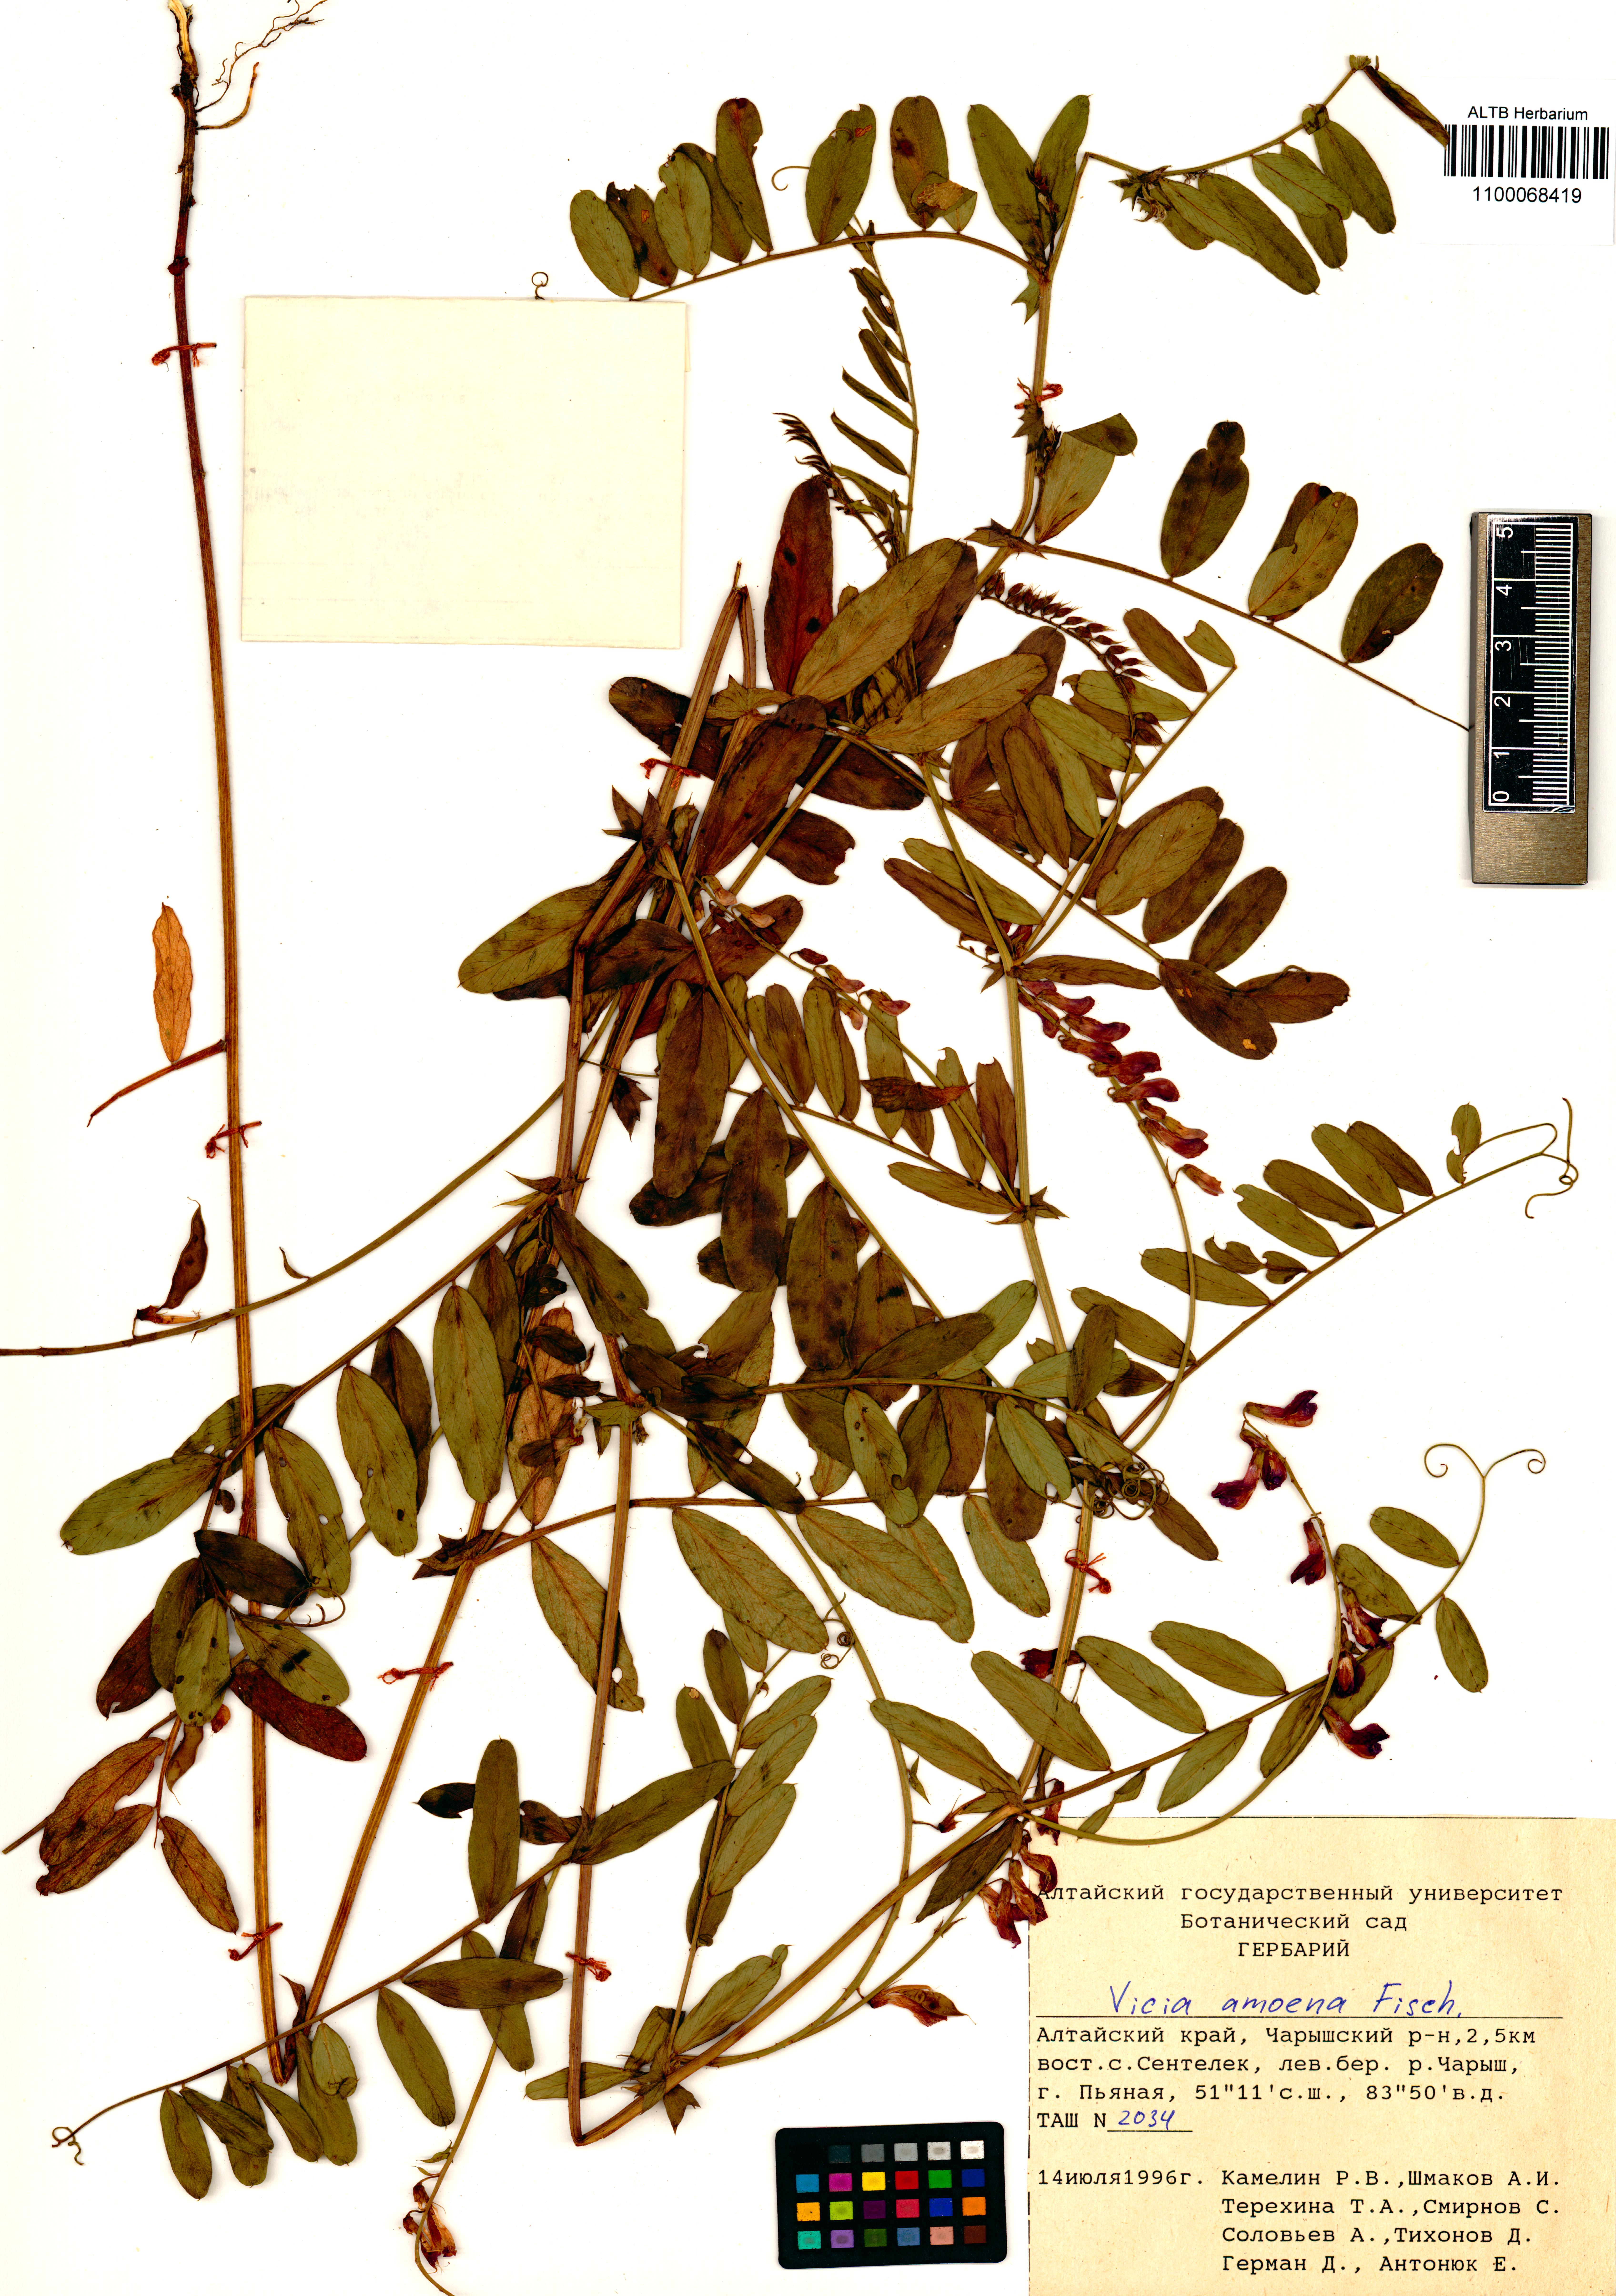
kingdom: Plantae
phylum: Tracheophyta
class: Magnoliopsida
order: Fabales
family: Fabaceae
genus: Vicia
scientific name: Vicia amoena
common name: Cheder ebs
